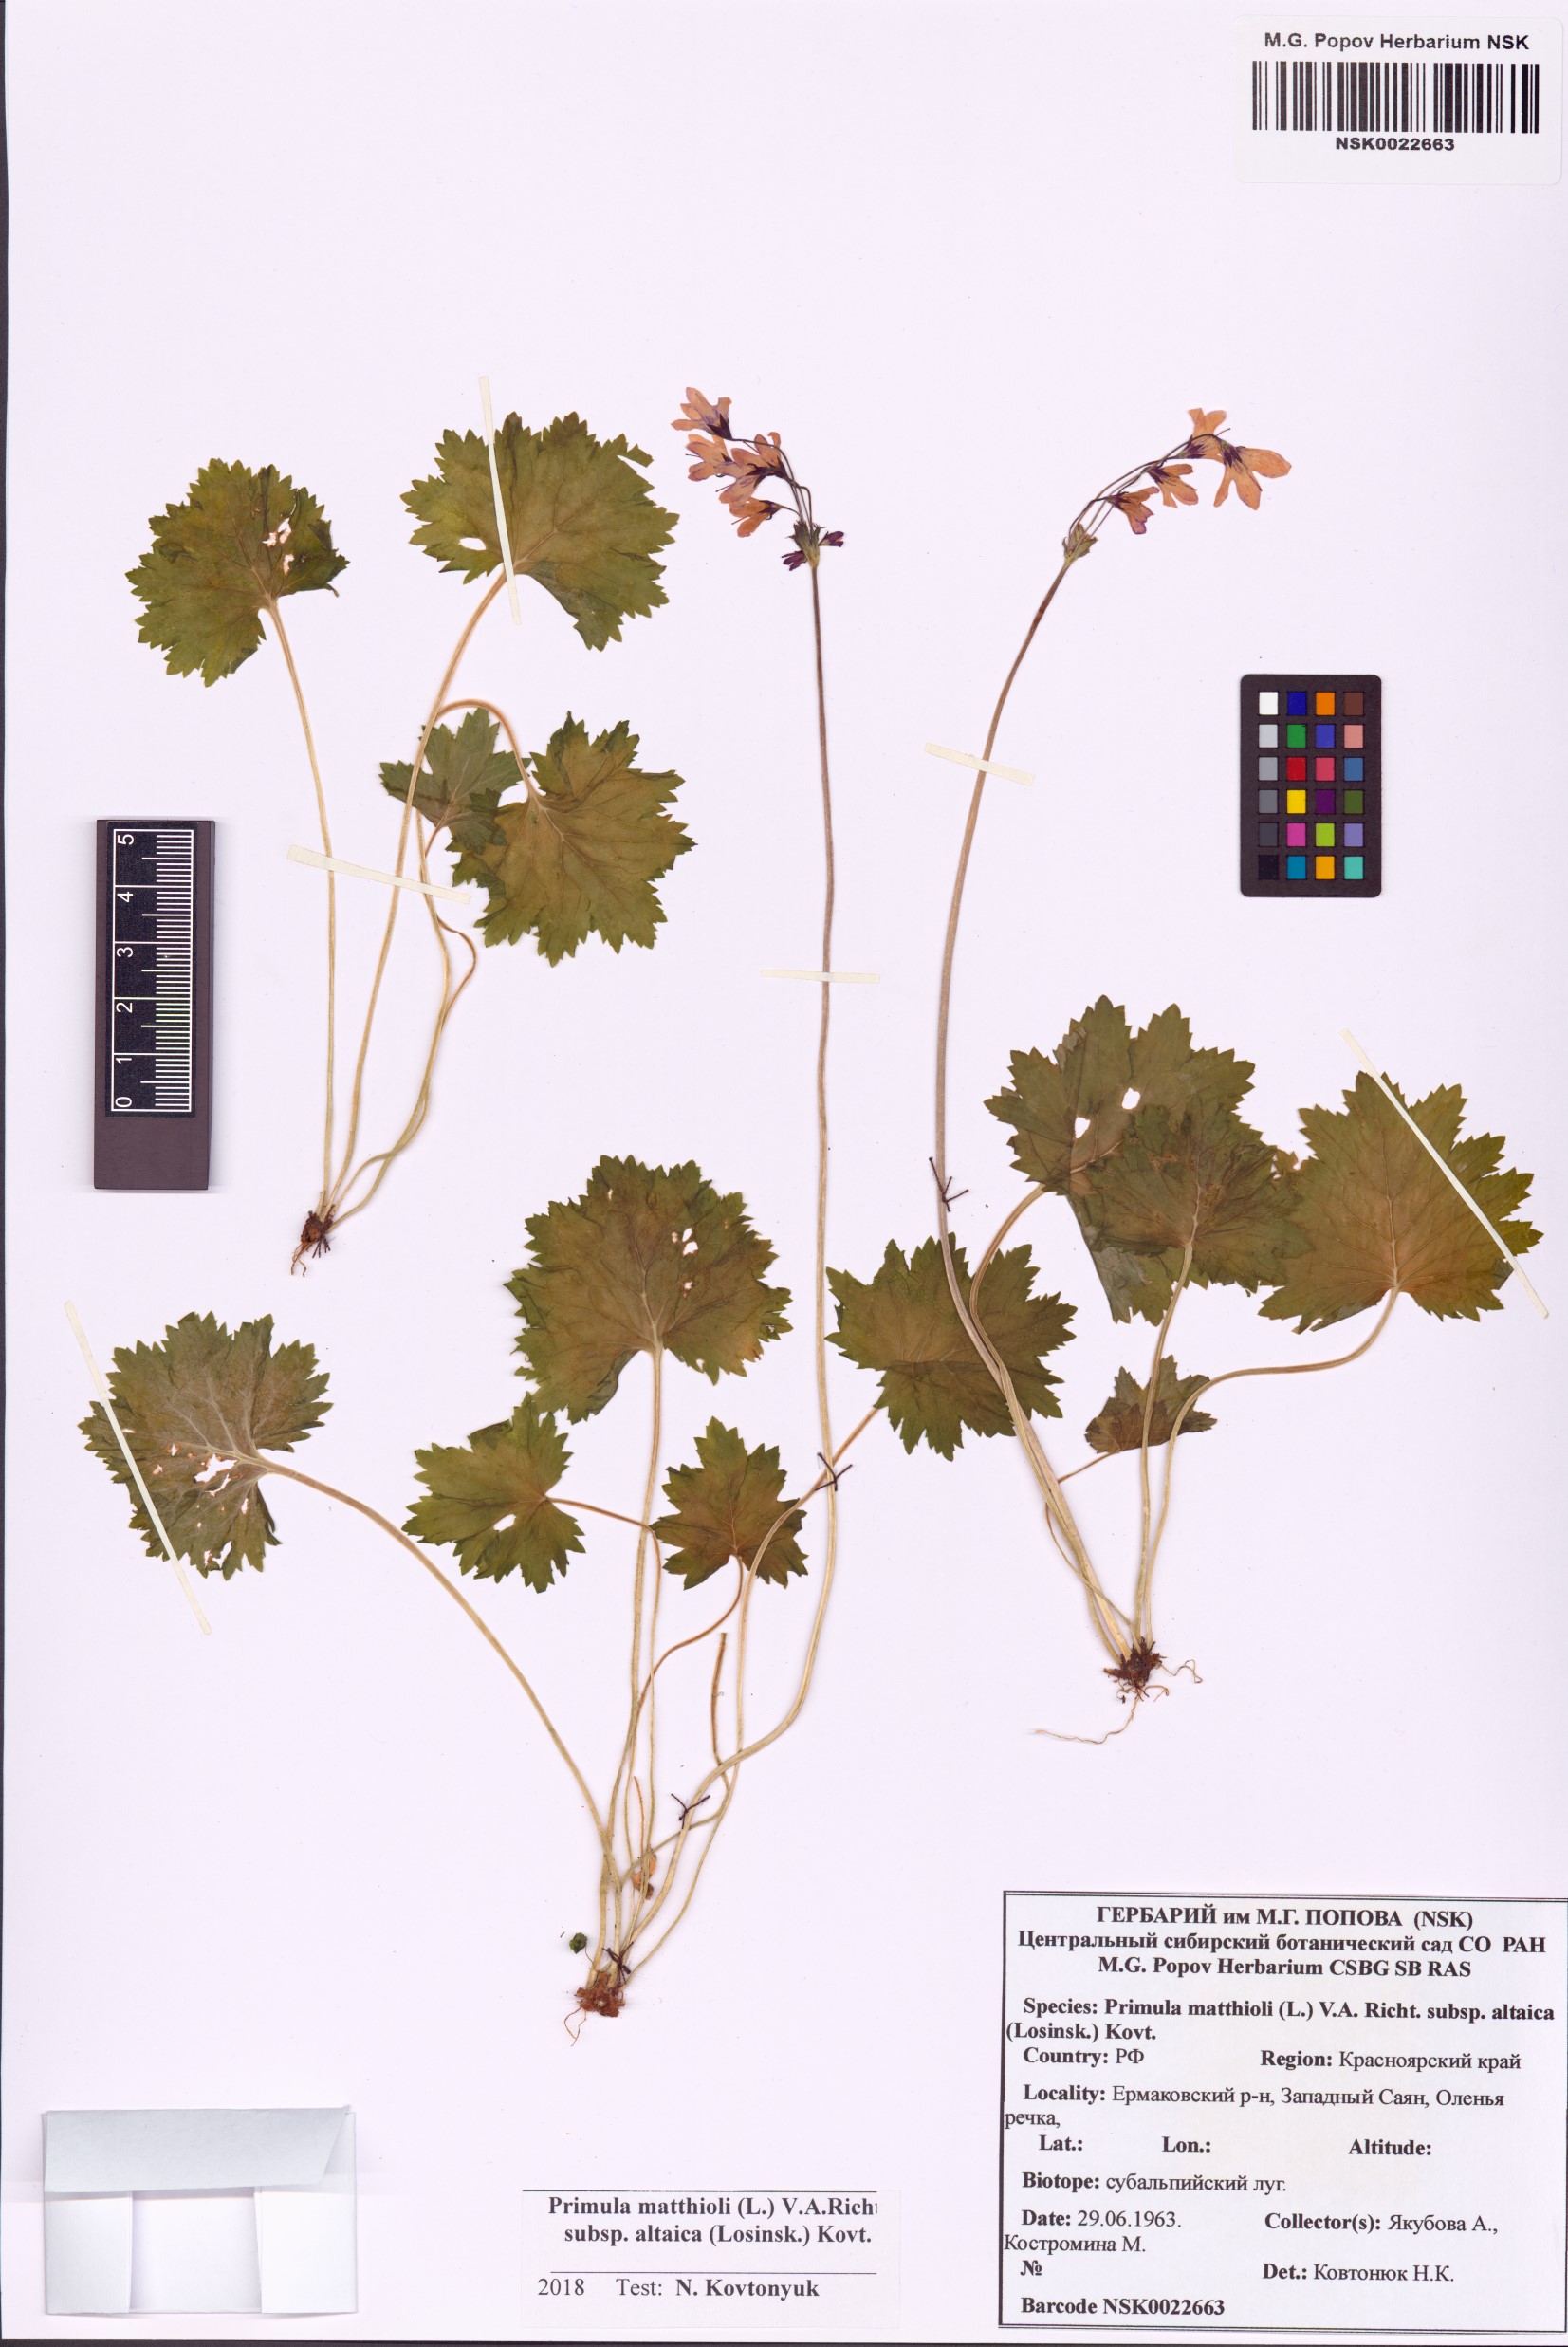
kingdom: Plantae
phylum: Tracheophyta
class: Magnoliopsida
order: Ericales
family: Primulaceae
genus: Primula
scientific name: Primula matthioli
